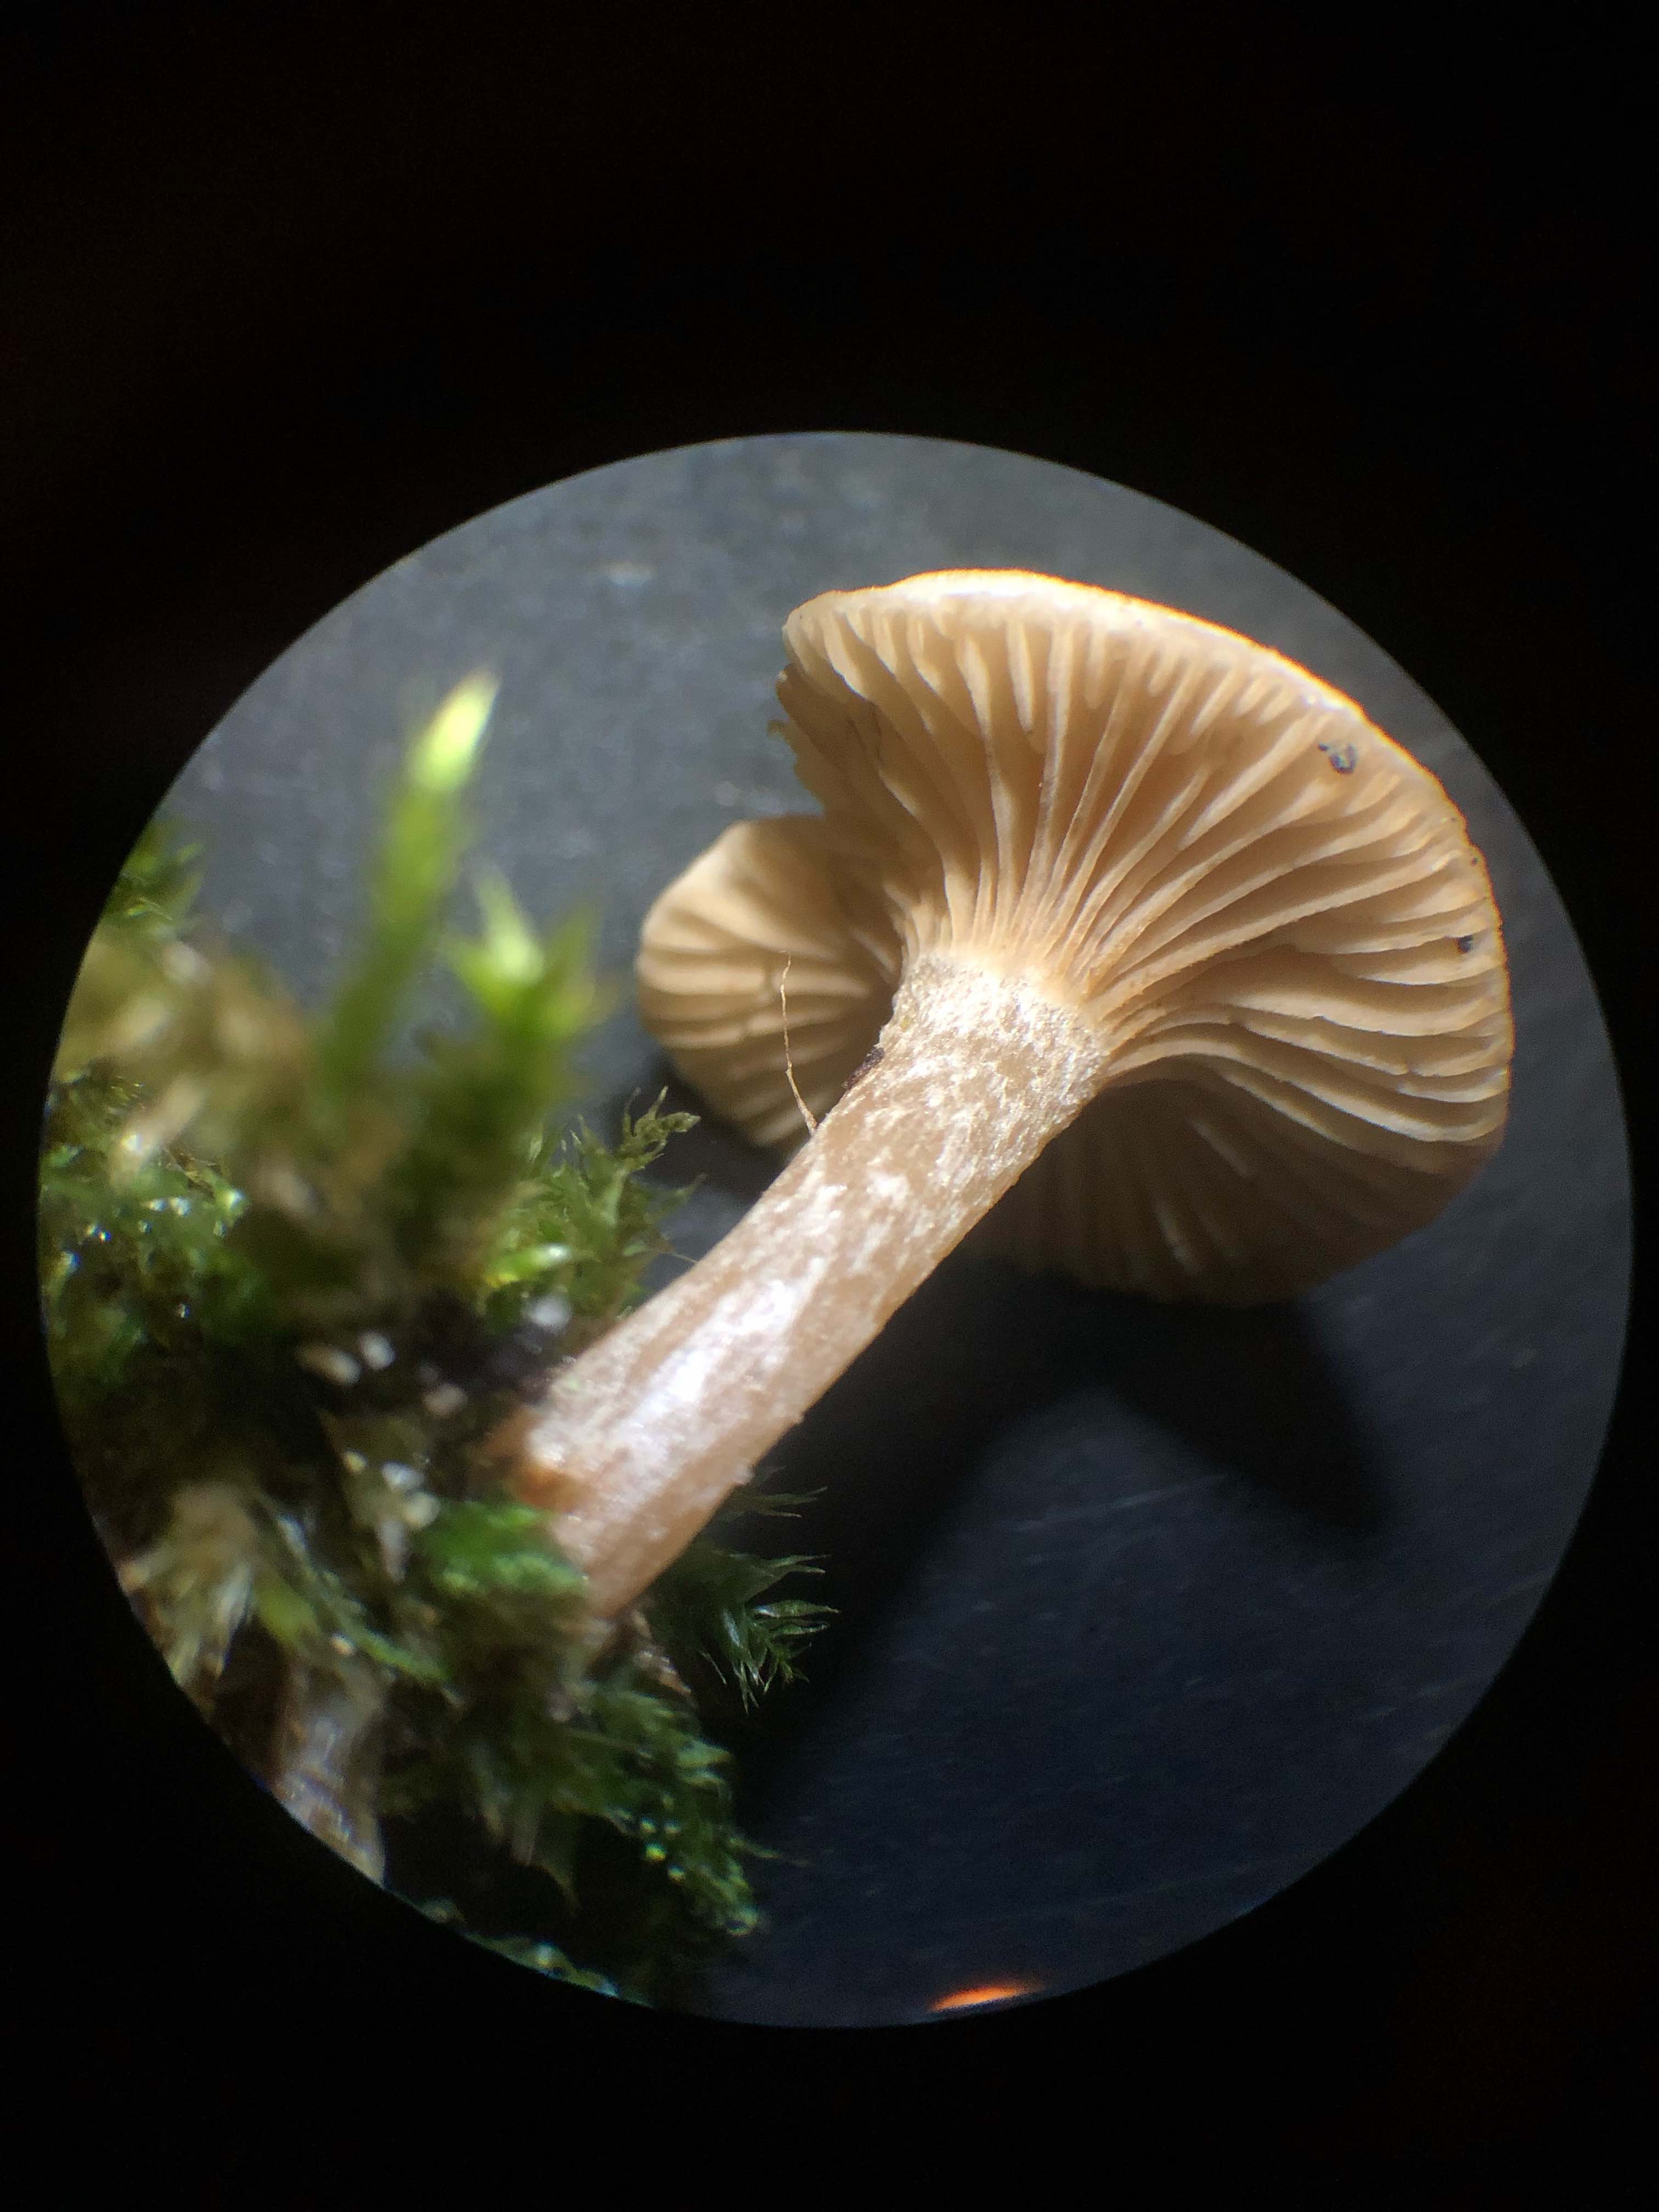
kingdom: Fungi
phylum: Basidiomycota
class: Agaricomycetes
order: Agaricales
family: Tricholomataceae
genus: Ripartites
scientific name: Ripartites
